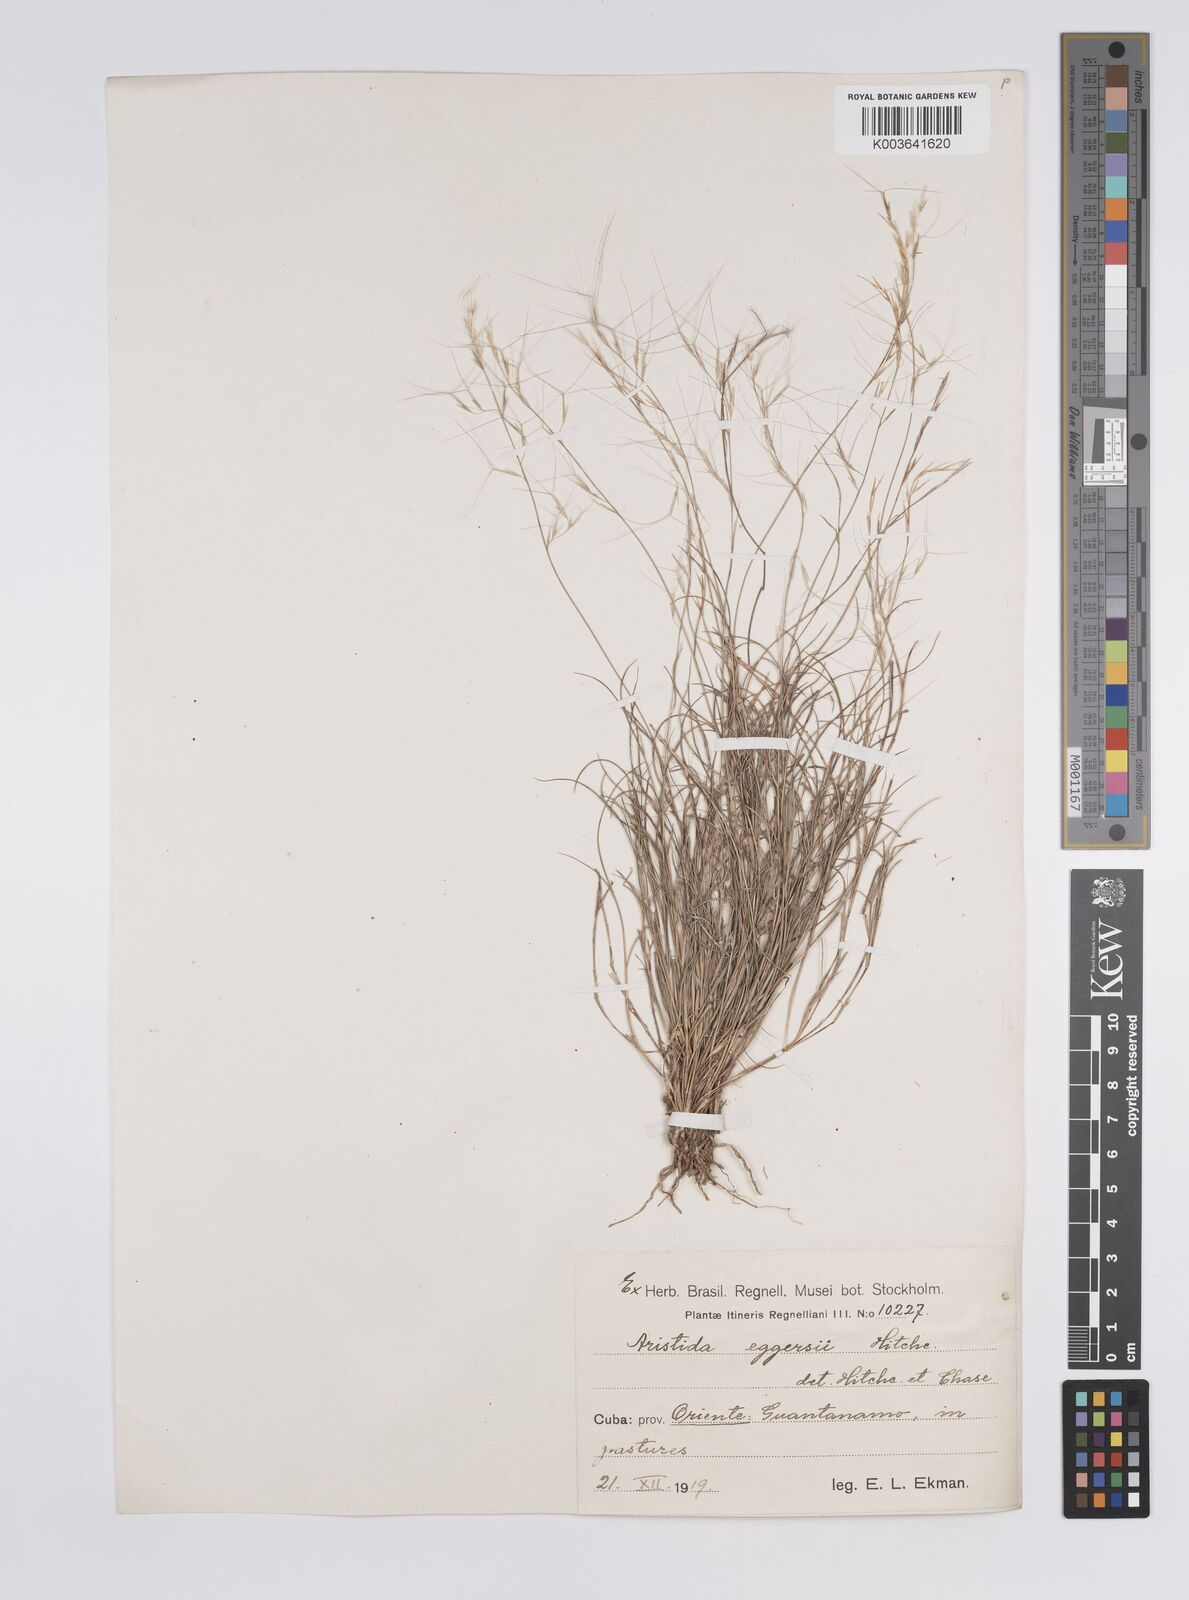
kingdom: Plantae
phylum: Tracheophyta
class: Liliopsida
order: Poales
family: Poaceae
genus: Aristida
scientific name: Aristida purpurea
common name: Purple threeawn
